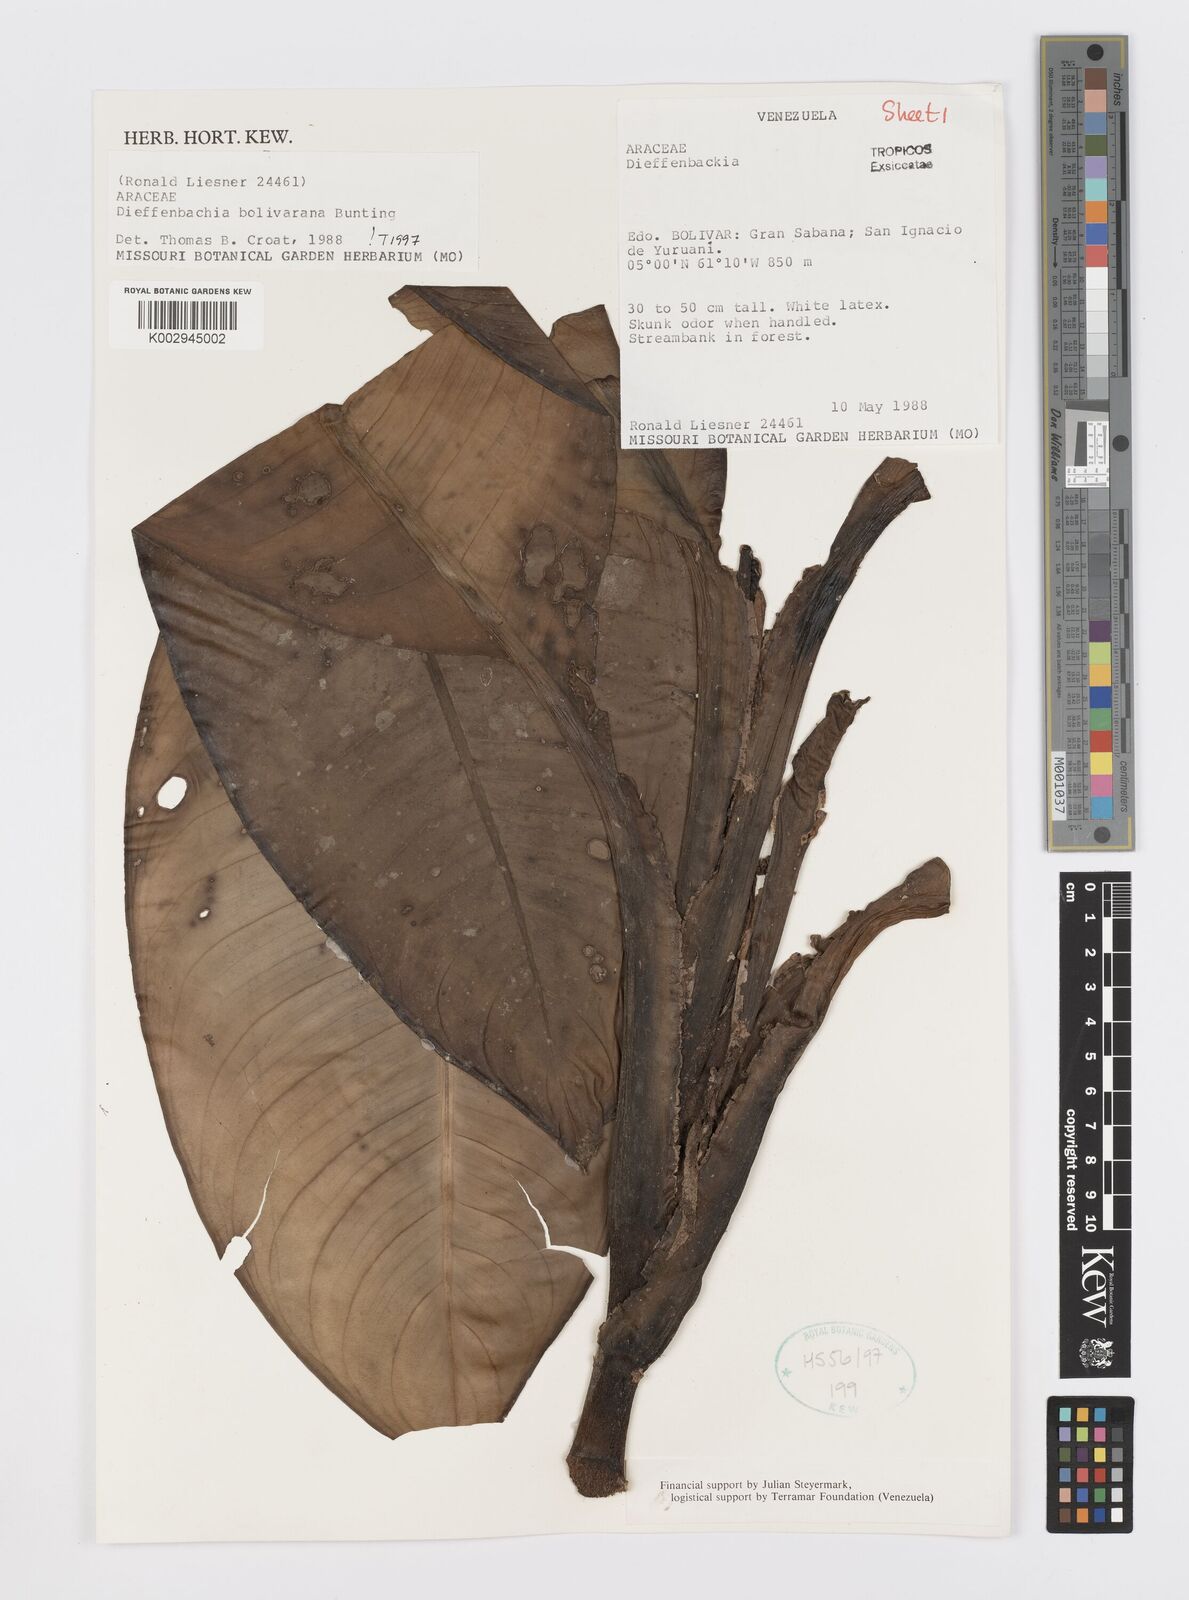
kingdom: Plantae
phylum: Tracheophyta
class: Liliopsida
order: Alismatales
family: Araceae
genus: Dieffenbachia
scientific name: Dieffenbachia duidae
